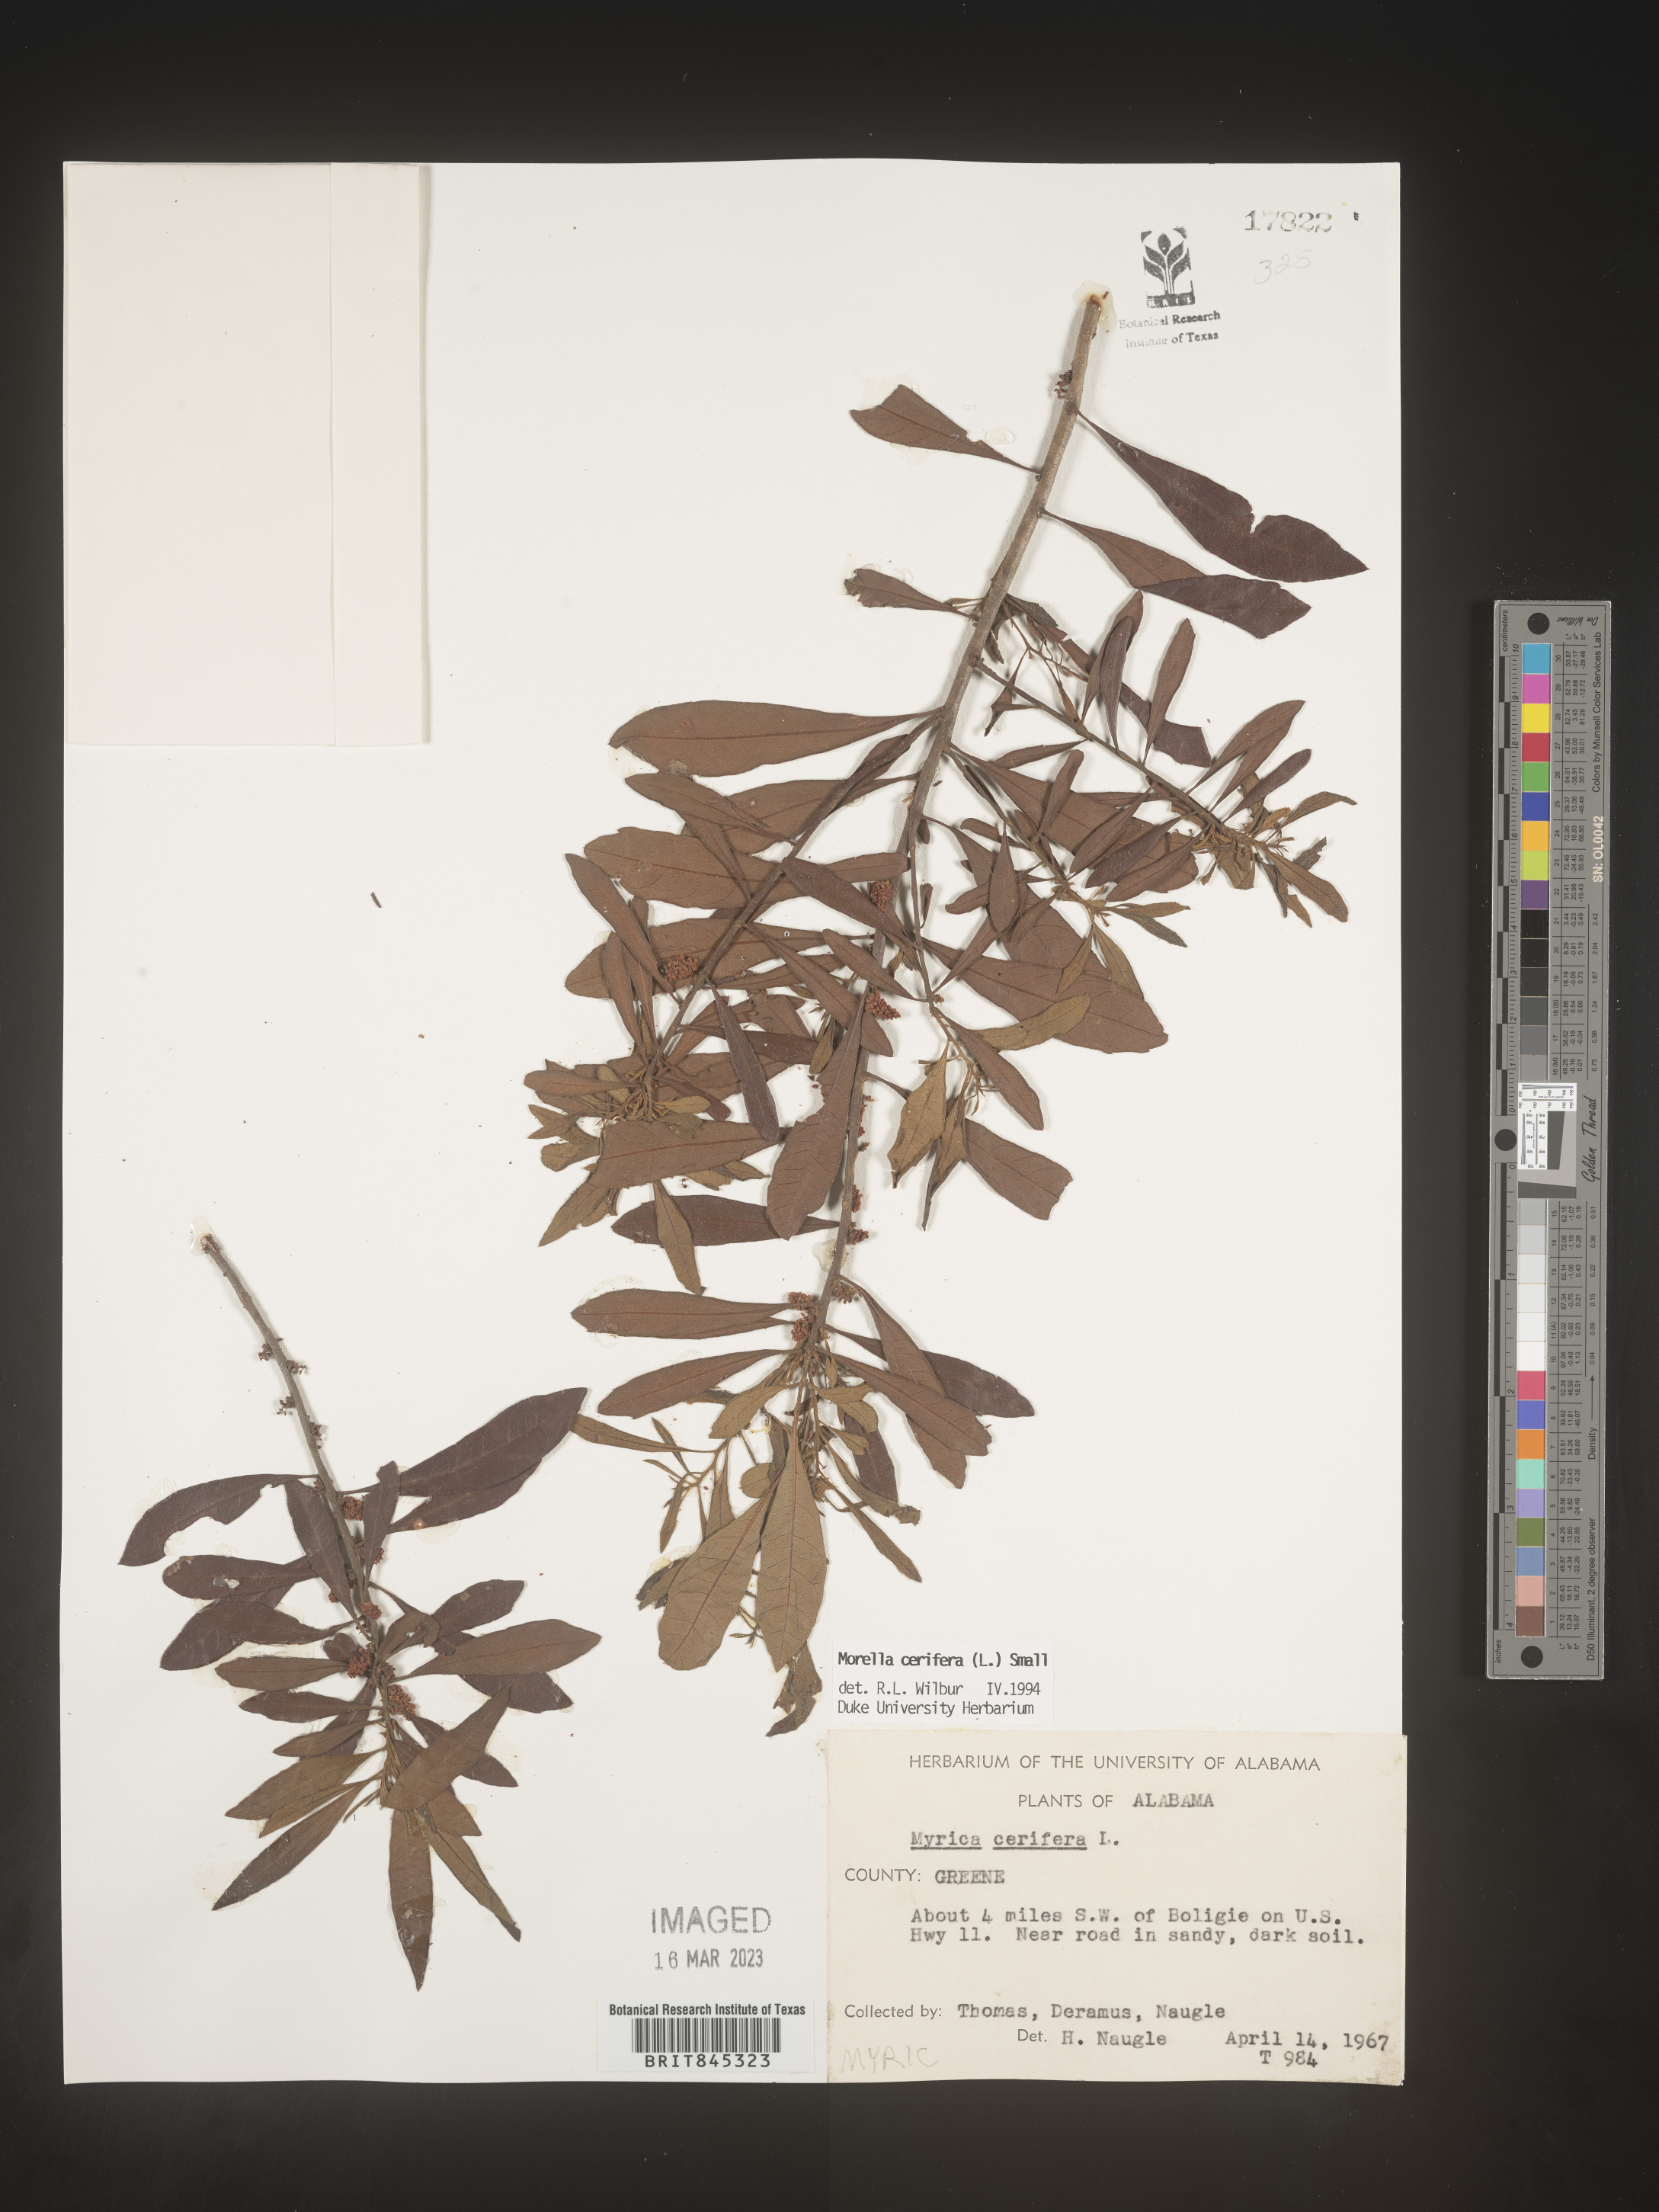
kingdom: Plantae
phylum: Tracheophyta
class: Magnoliopsida
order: Fagales
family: Myricaceae
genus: Morella
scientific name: Morella cerifera
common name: Wax myrtle
